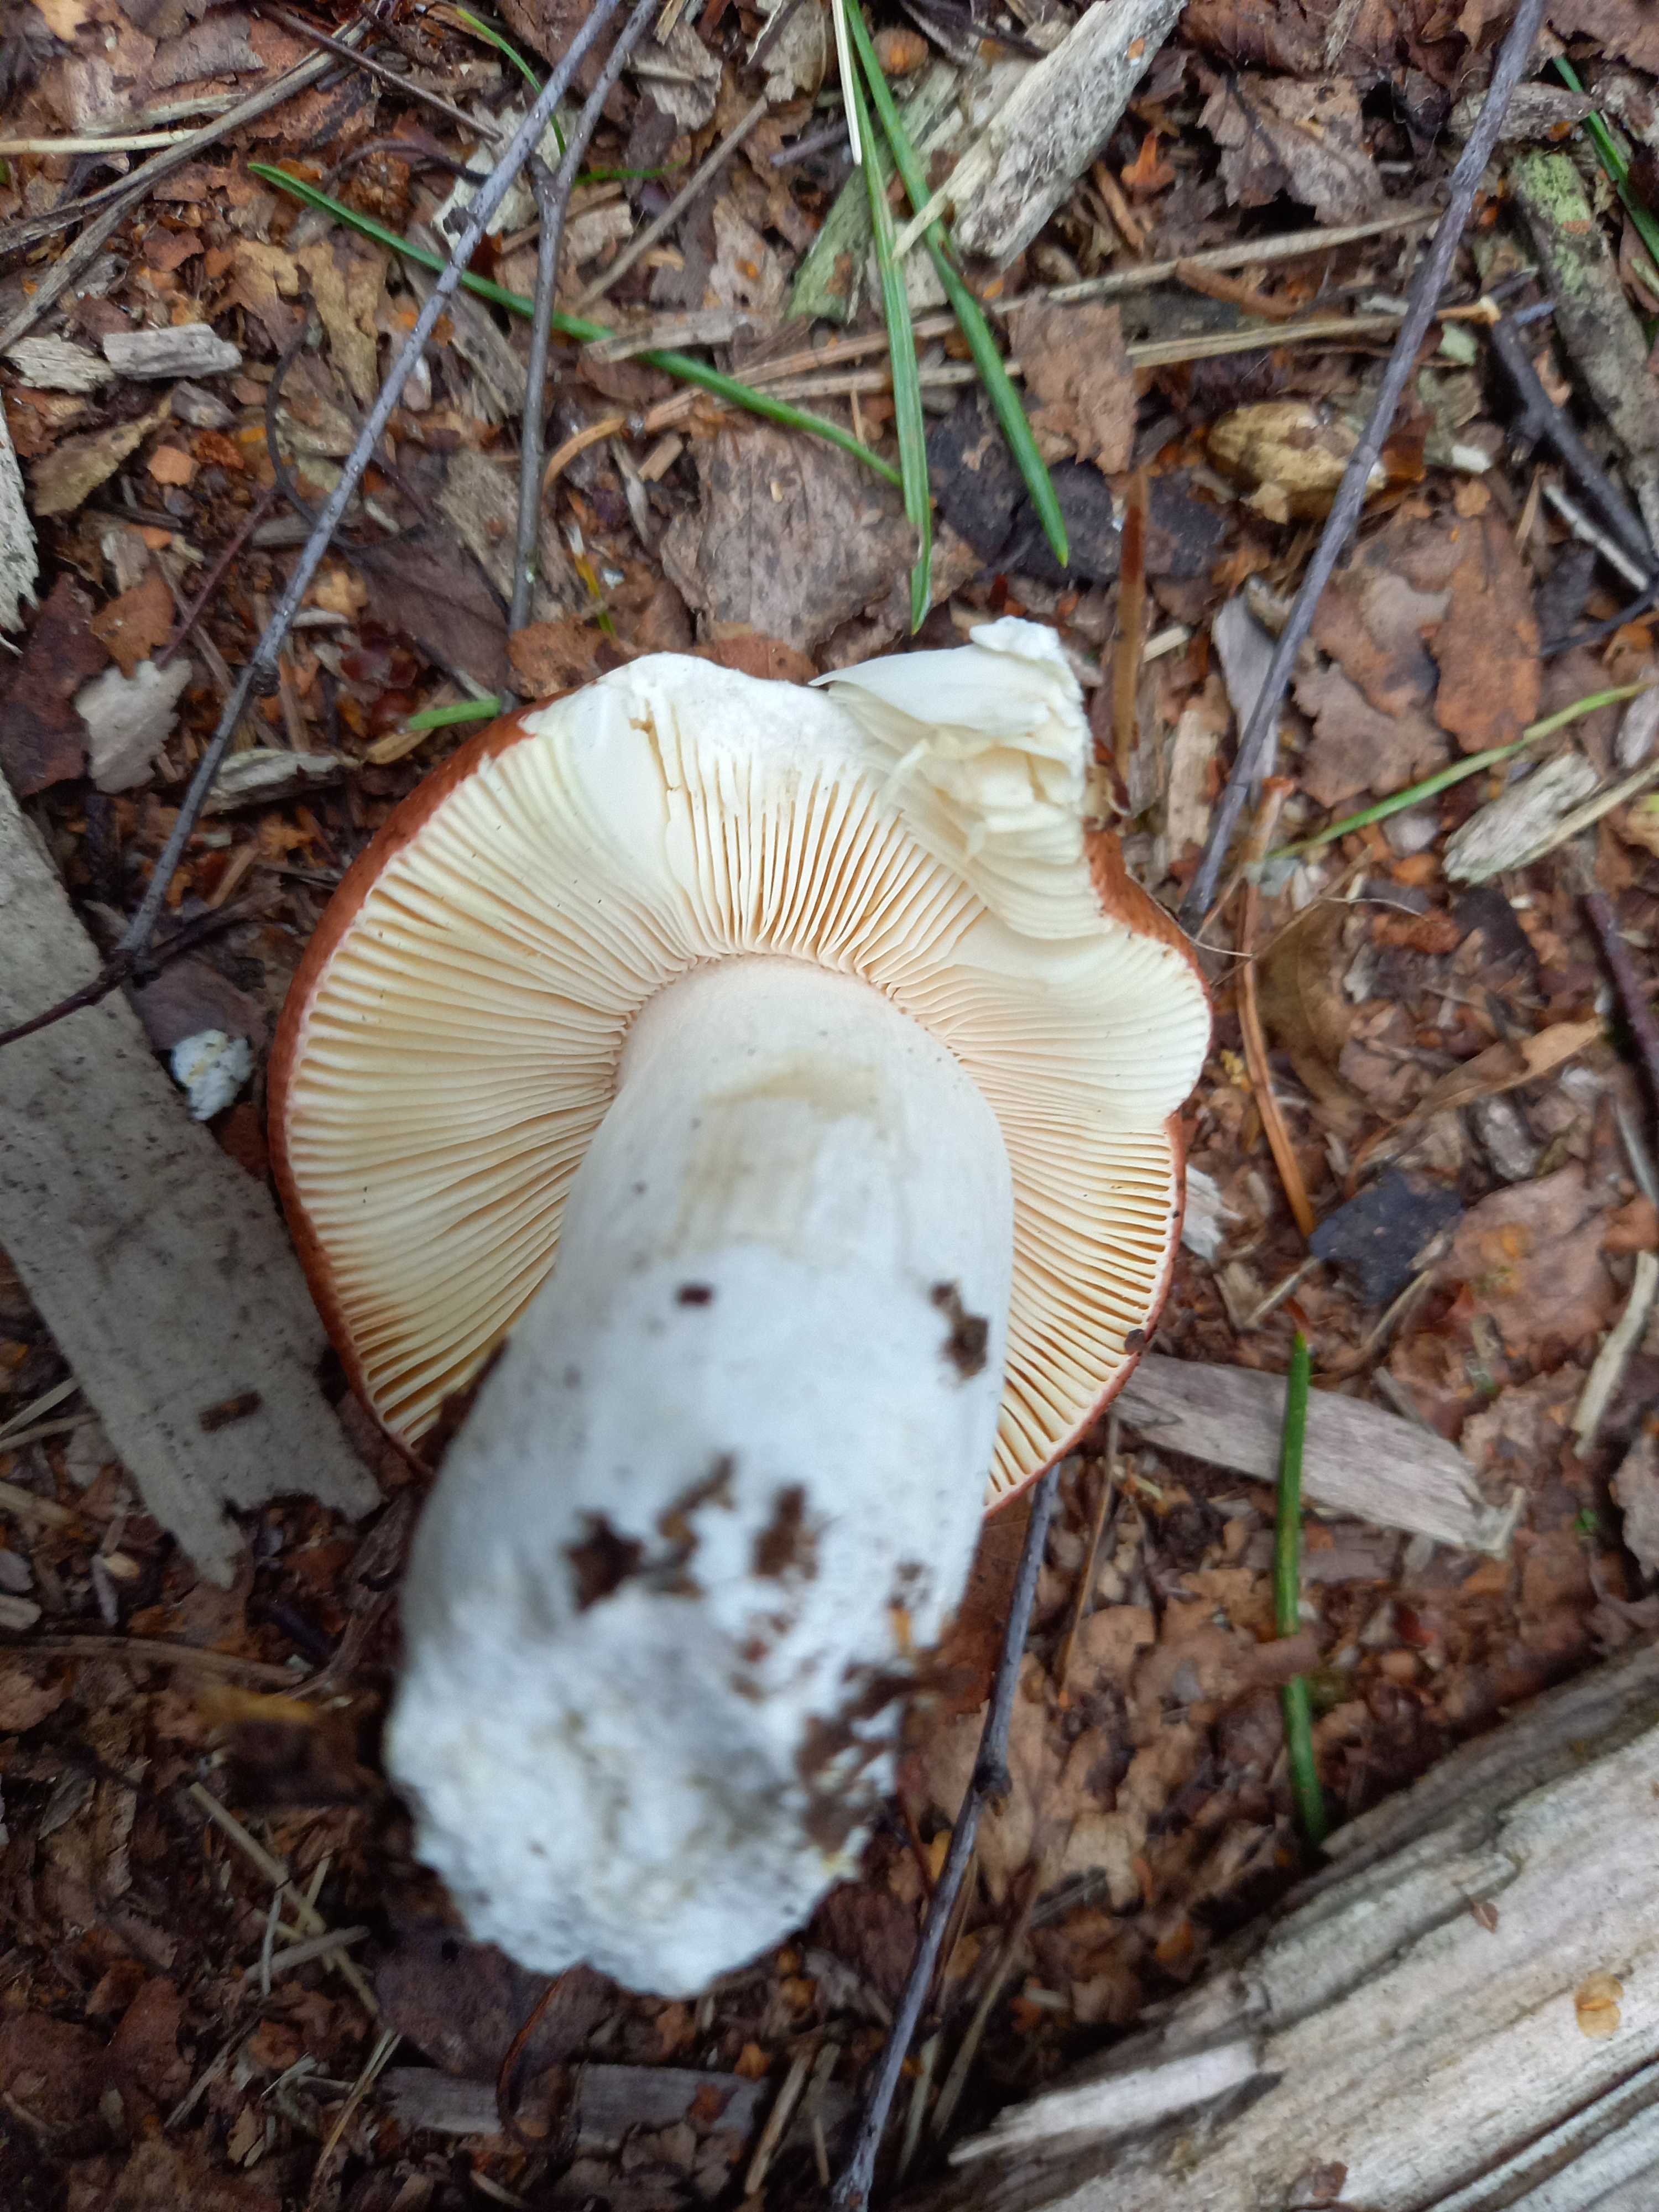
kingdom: Fungi
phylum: Basidiomycota
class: Agaricomycetes
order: Russulales
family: Russulaceae
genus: Russula
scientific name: Russula
